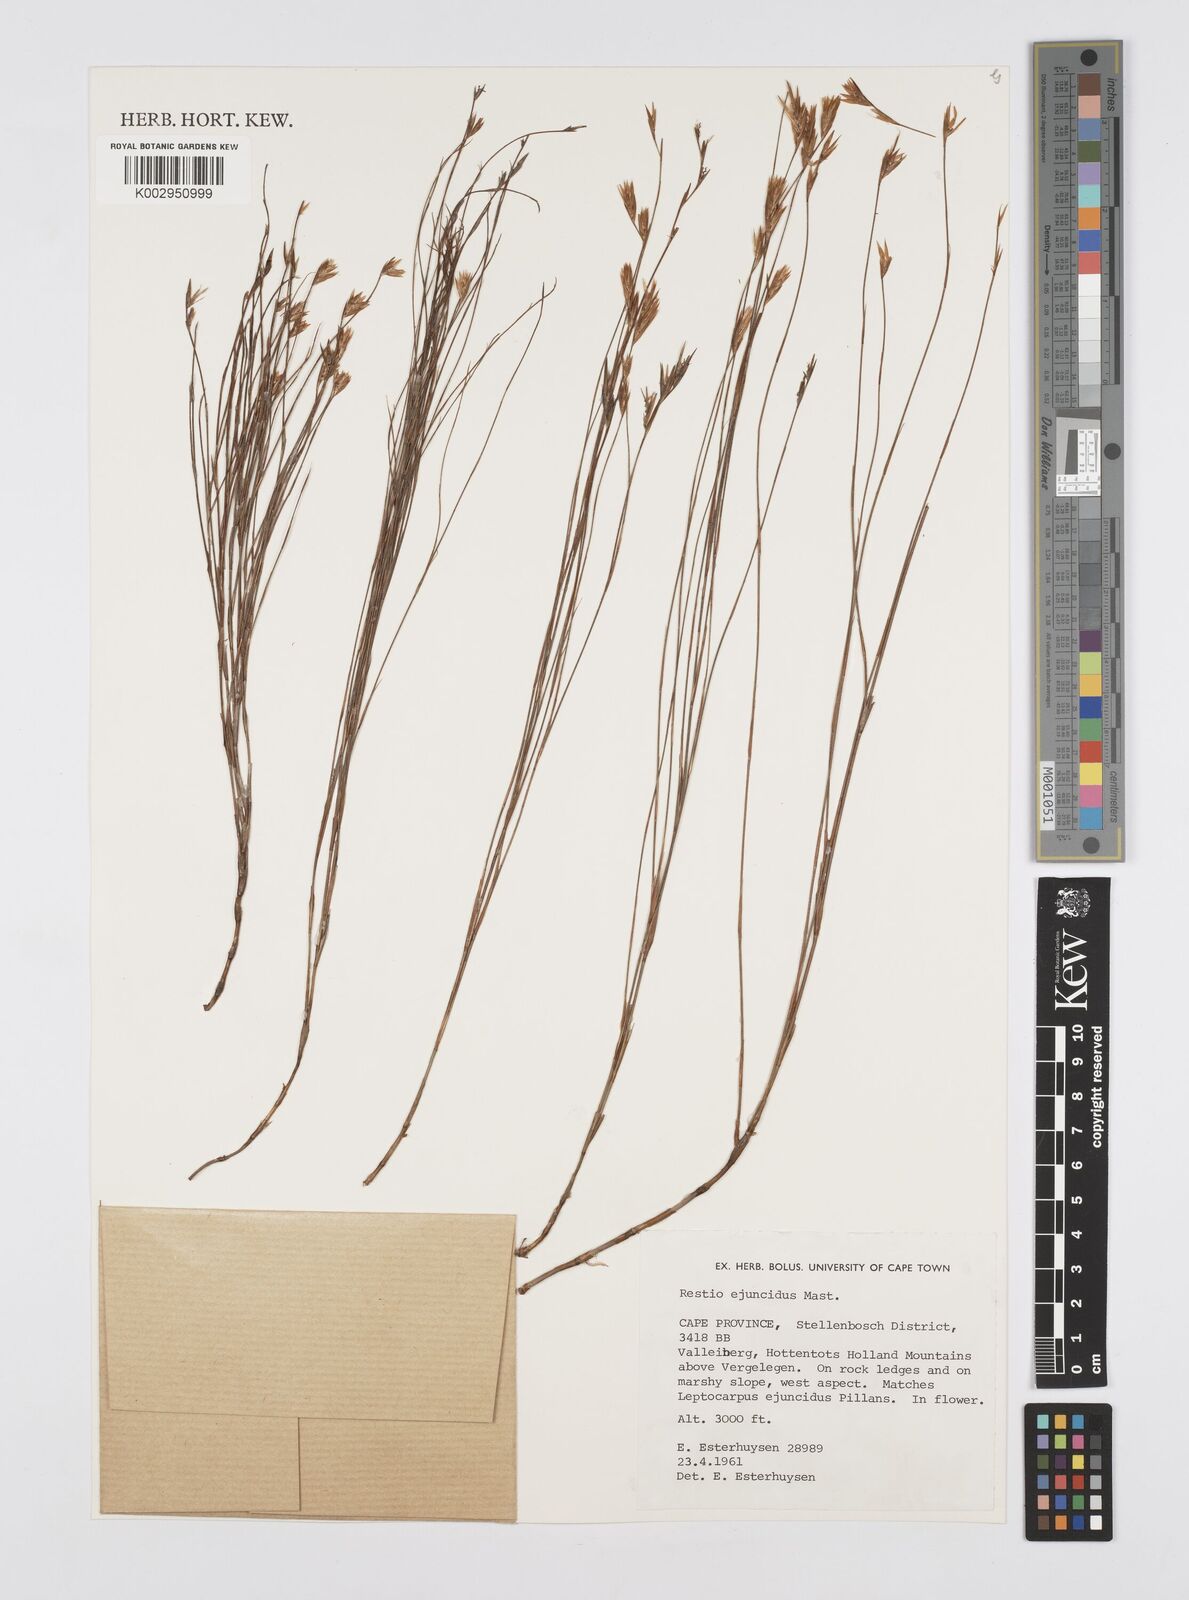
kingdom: Plantae
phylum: Tracheophyta
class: Liliopsida
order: Poales
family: Restionaceae
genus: Restio
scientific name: Restio ejuncidus
